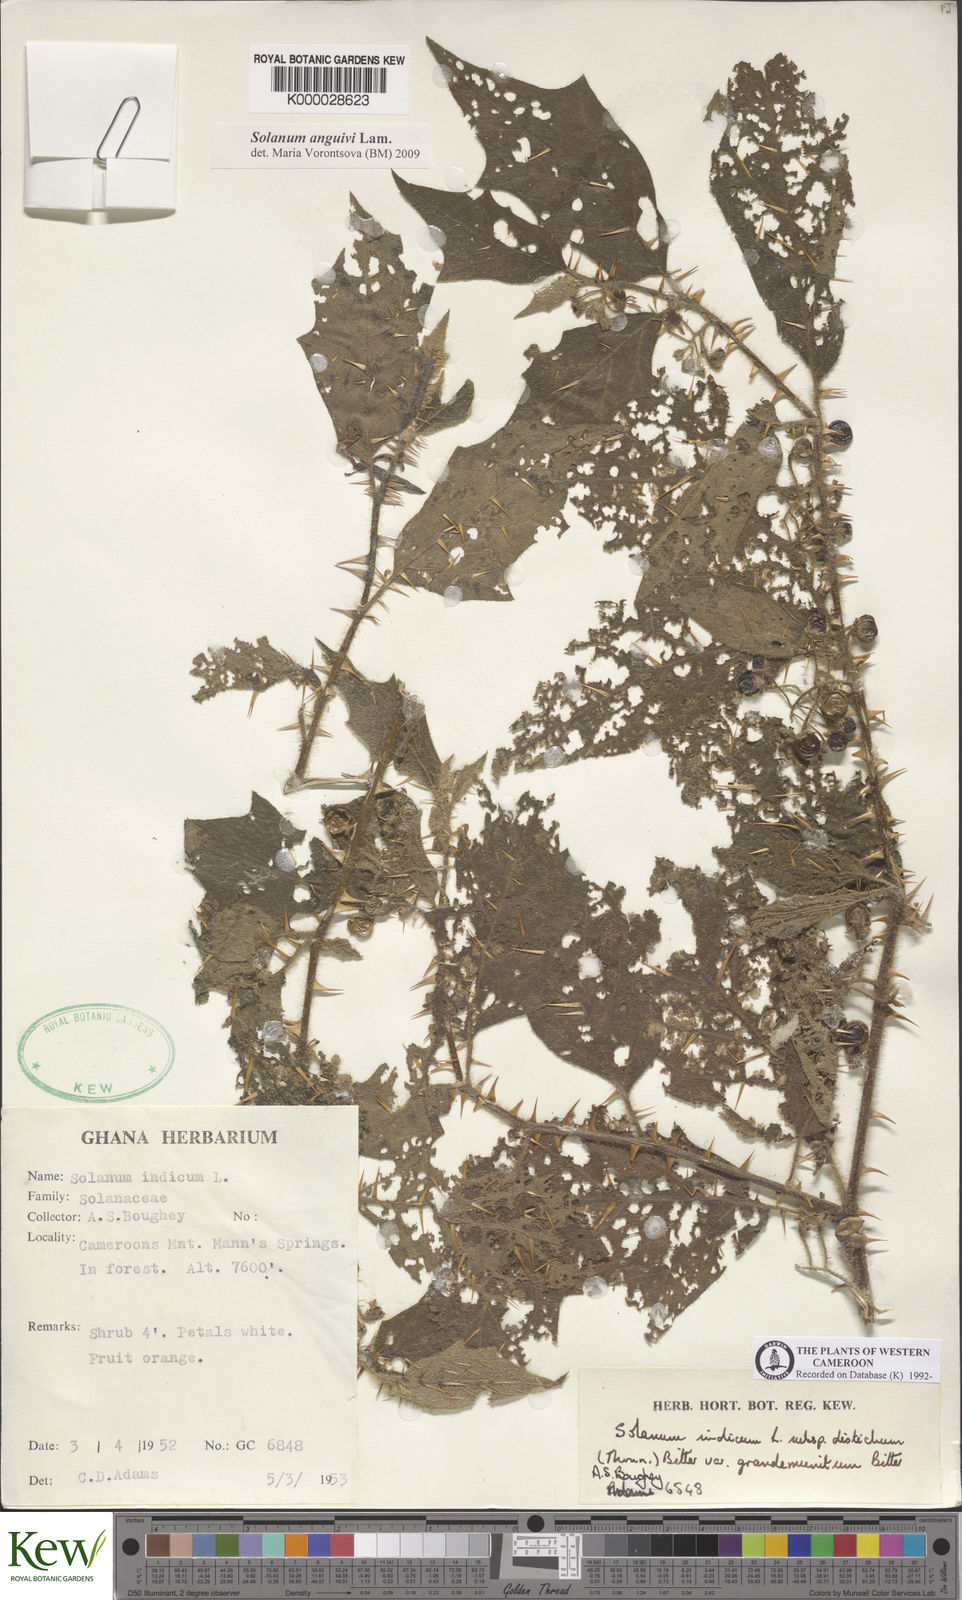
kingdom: Plantae
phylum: Tracheophyta
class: Magnoliopsida
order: Solanales
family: Solanaceae
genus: Solanum
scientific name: Solanum violaceum
